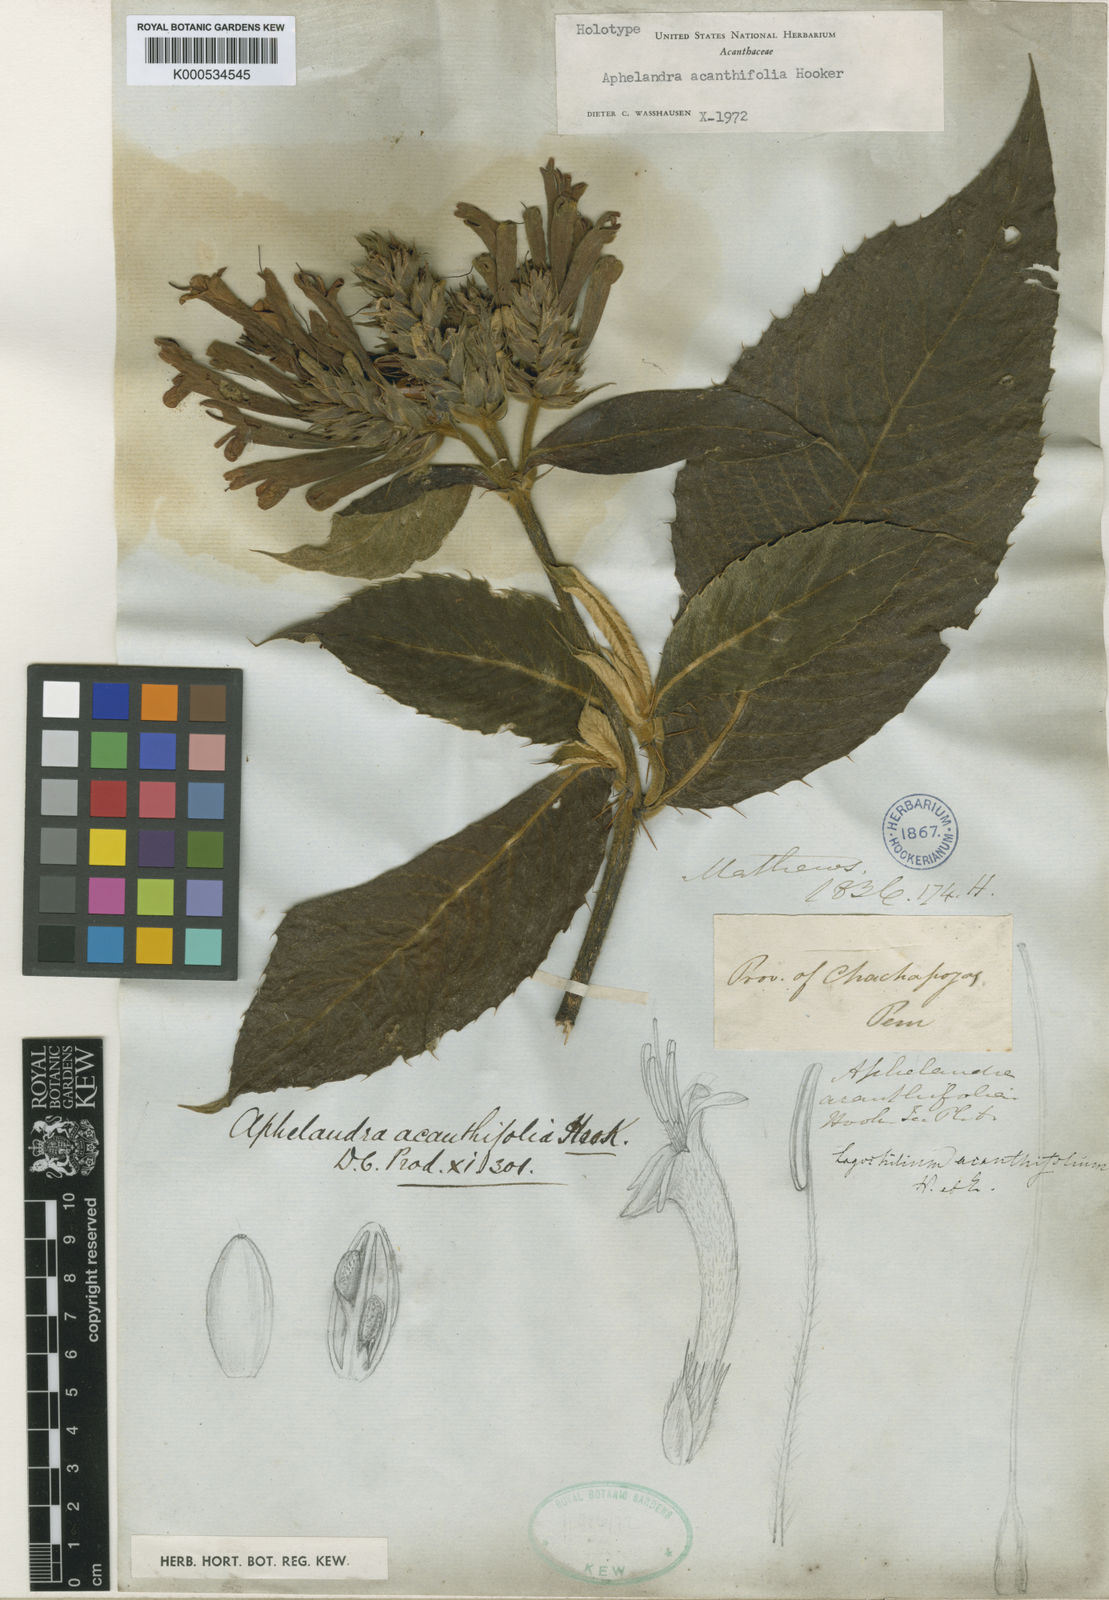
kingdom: Plantae
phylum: Tracheophyta
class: Magnoliopsida
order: Lamiales
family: Acanthaceae
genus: Aphelandra
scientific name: Aphelandra acanthifolia
